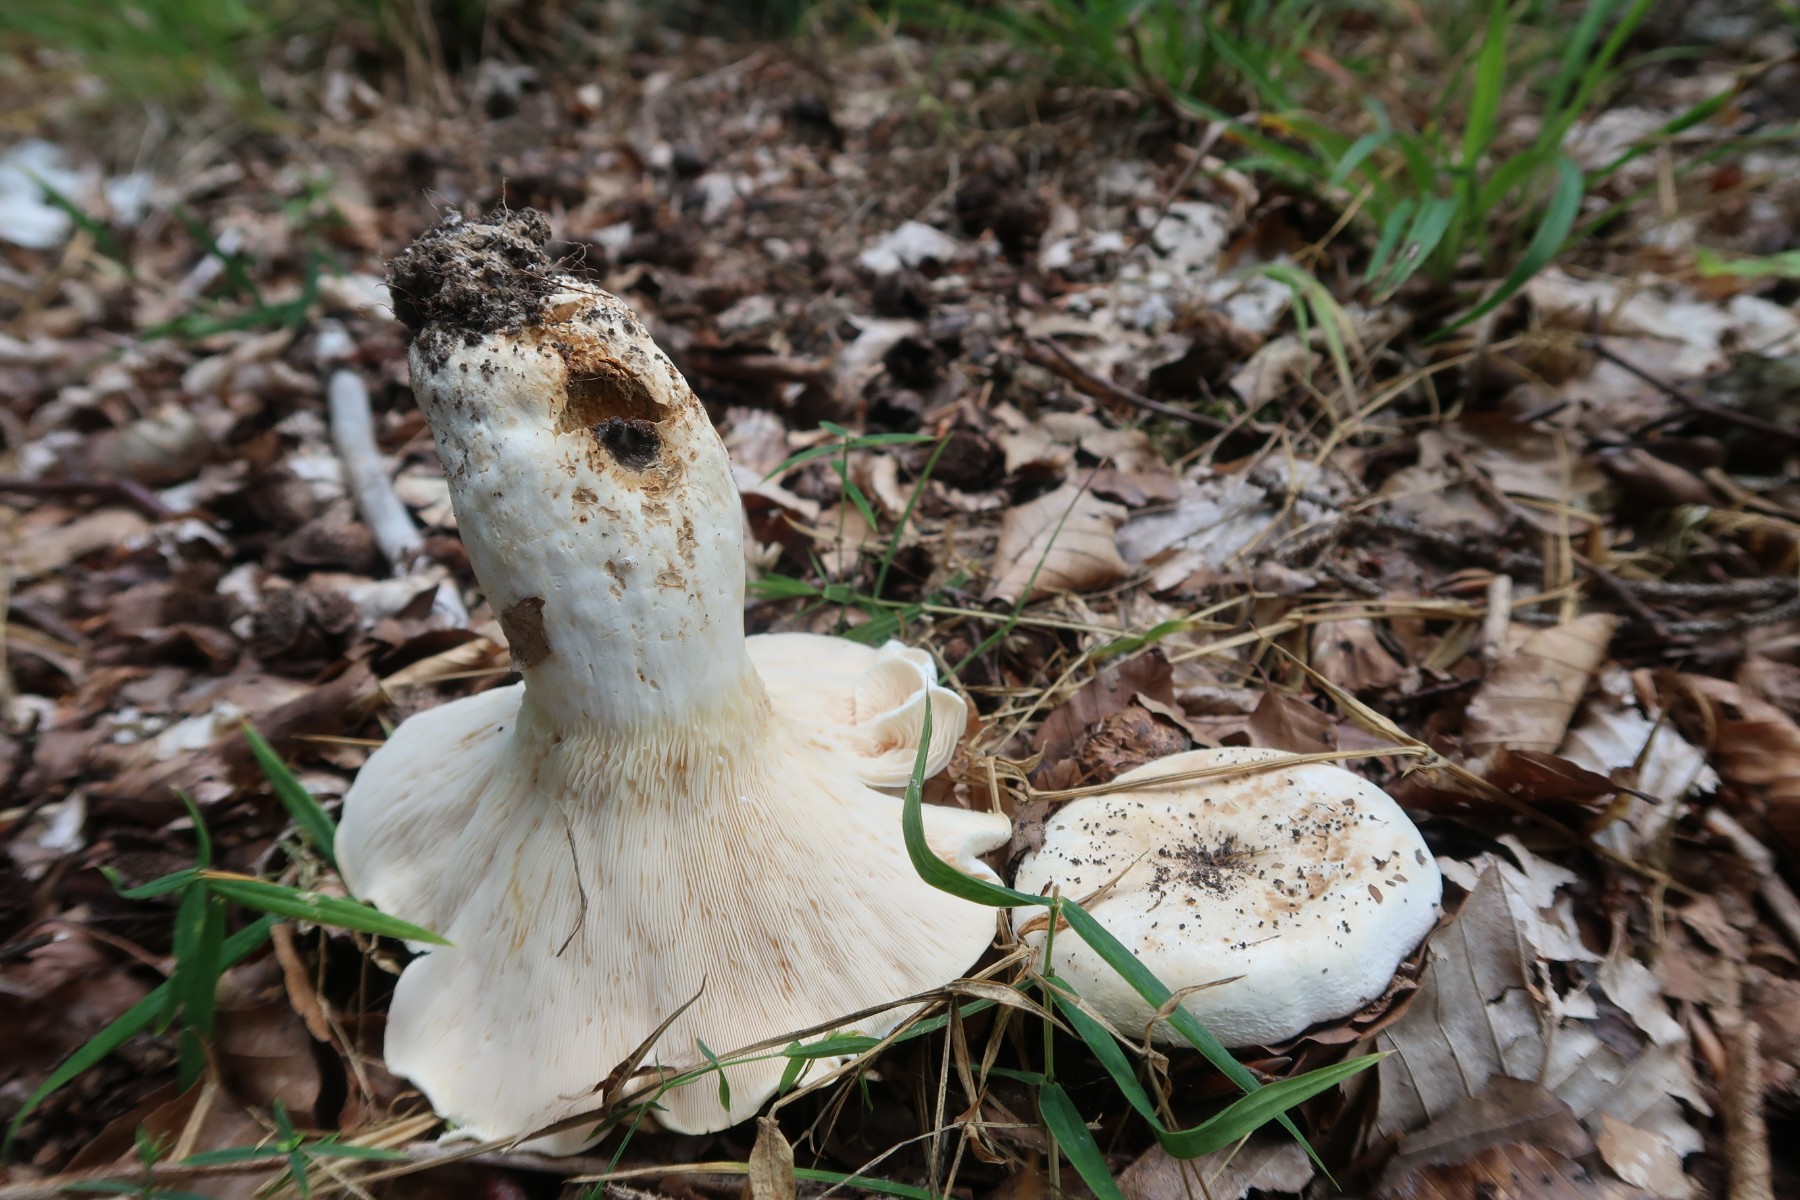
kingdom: Fungi
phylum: Basidiomycota
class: Agaricomycetes
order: Russulales
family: Russulaceae
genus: Lactifluus
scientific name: Lactifluus piperatus
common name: peber-mælkehat
